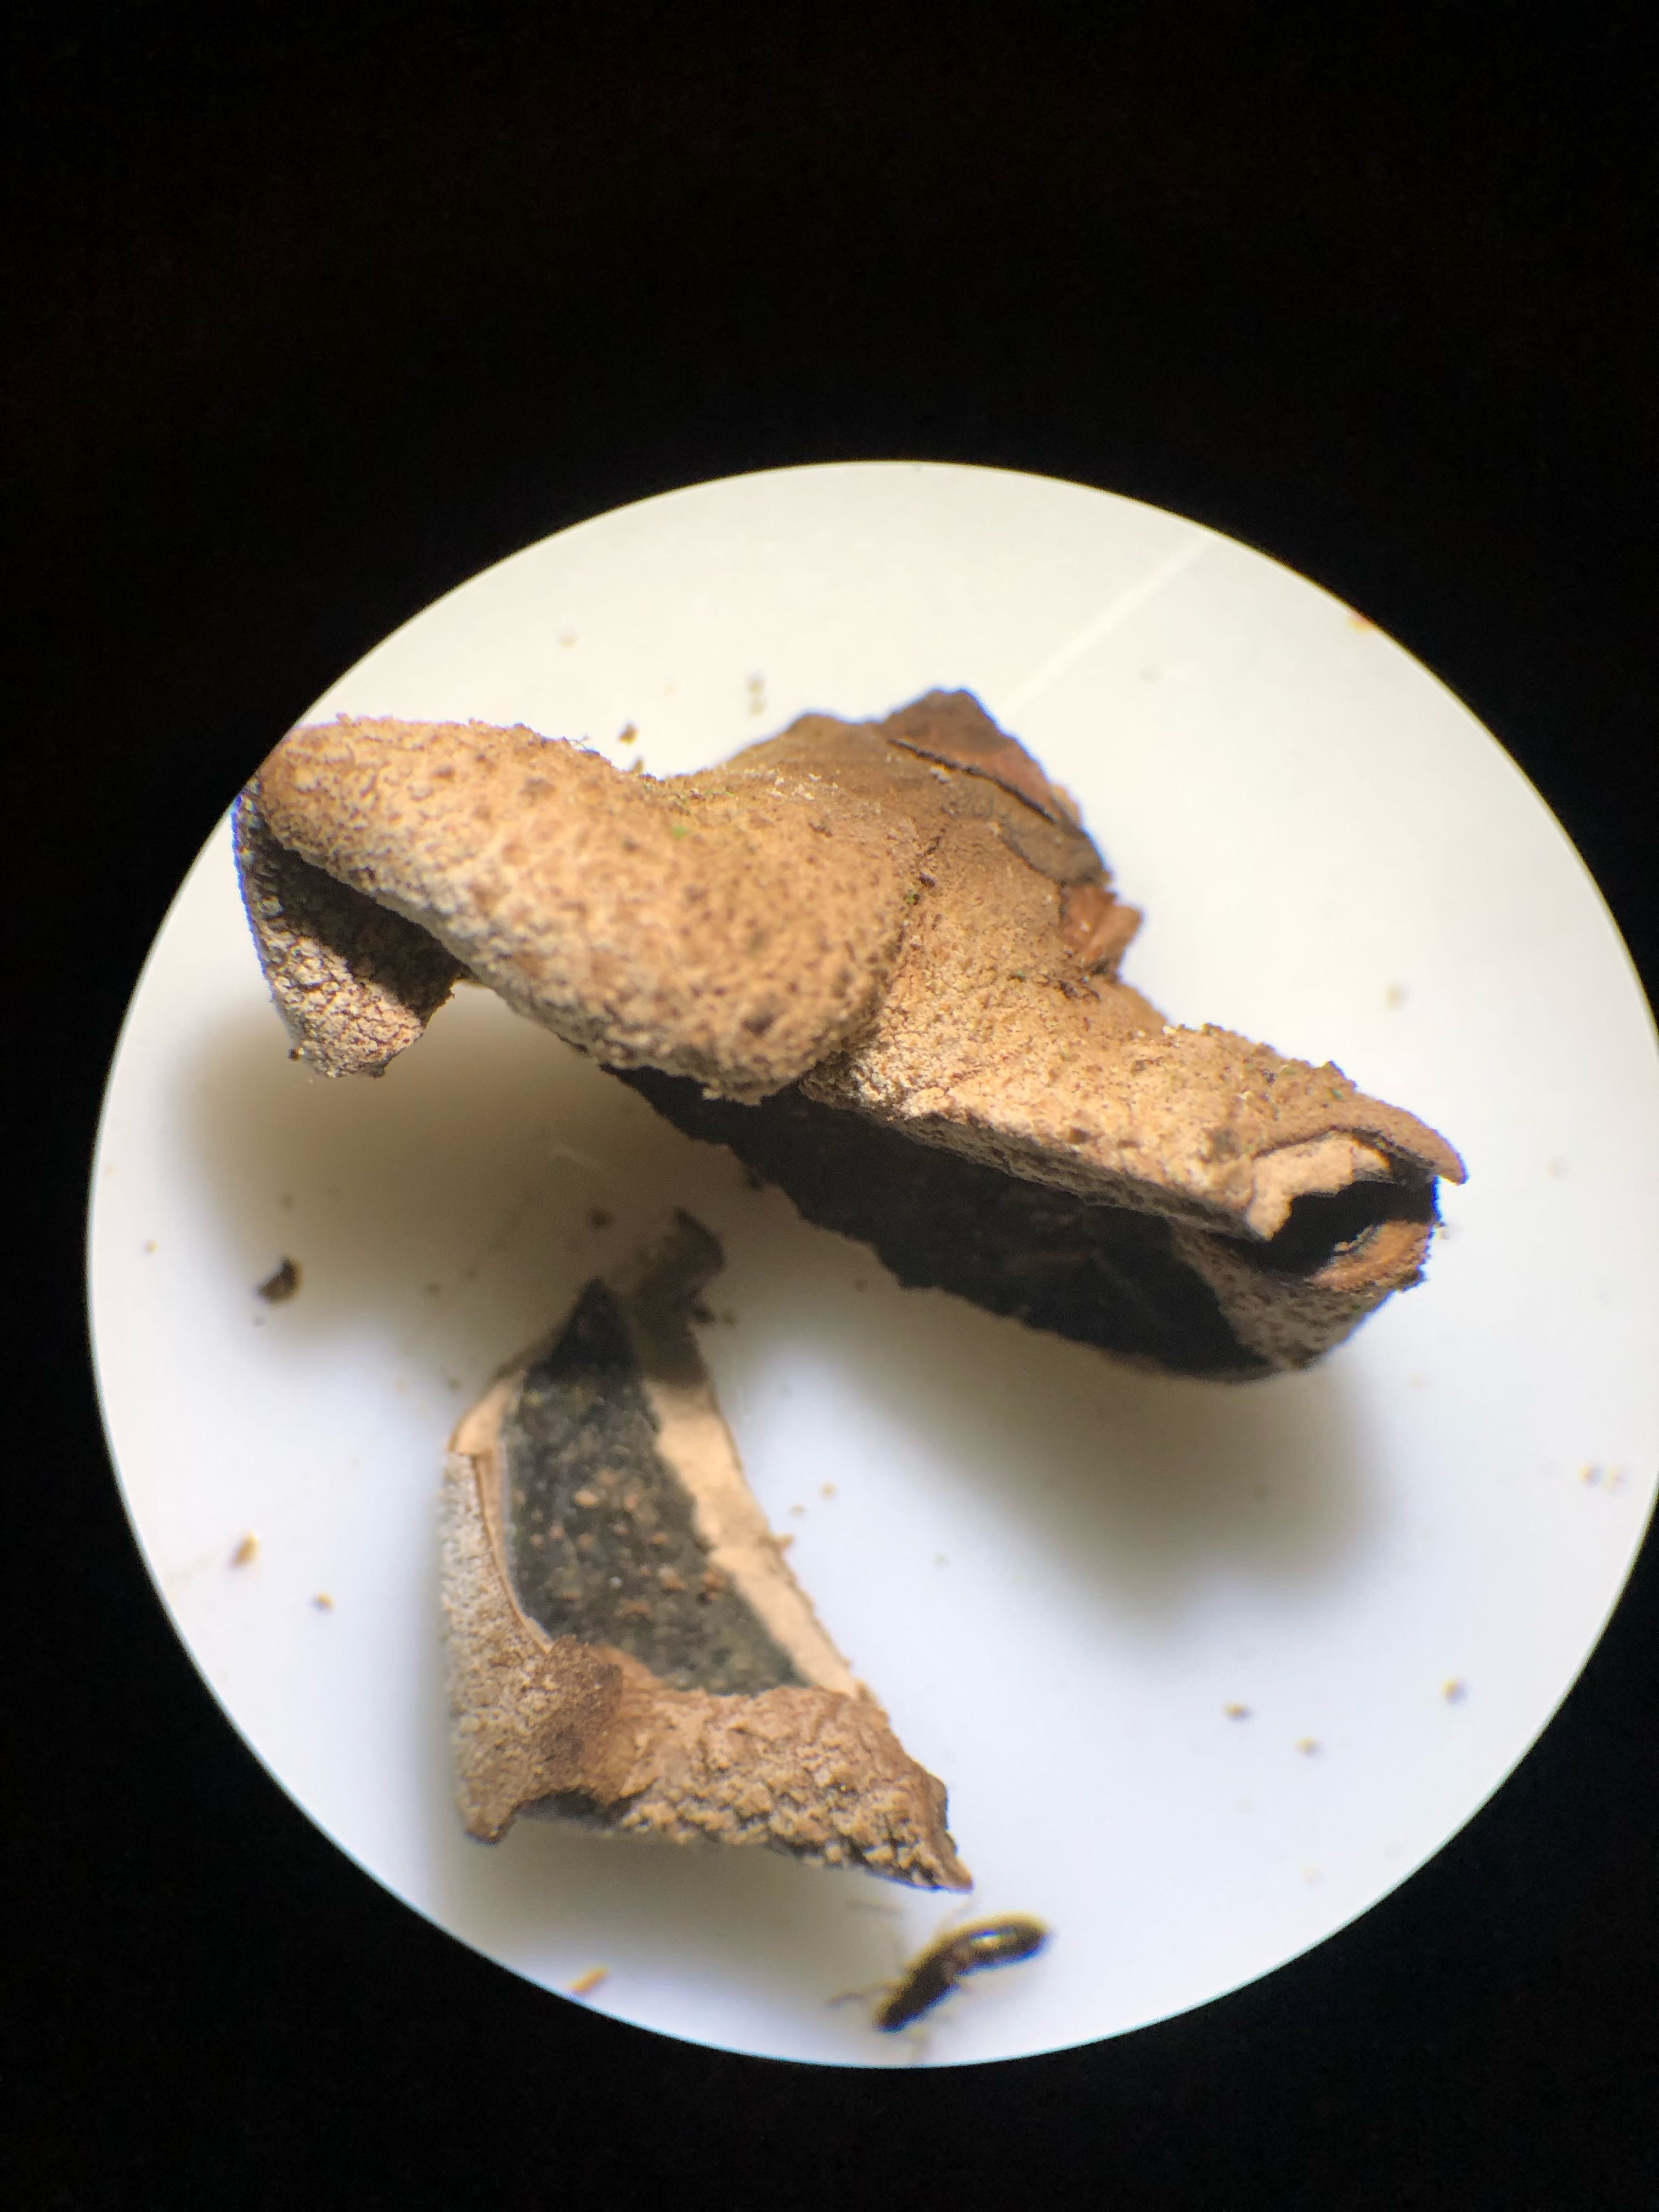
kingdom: Fungi
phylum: Ascomycota
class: Leotiomycetes
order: Helotiales
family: Cenangiaceae
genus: Encoelia
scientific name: Encoelia furfuracea
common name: hassel-læderskive
